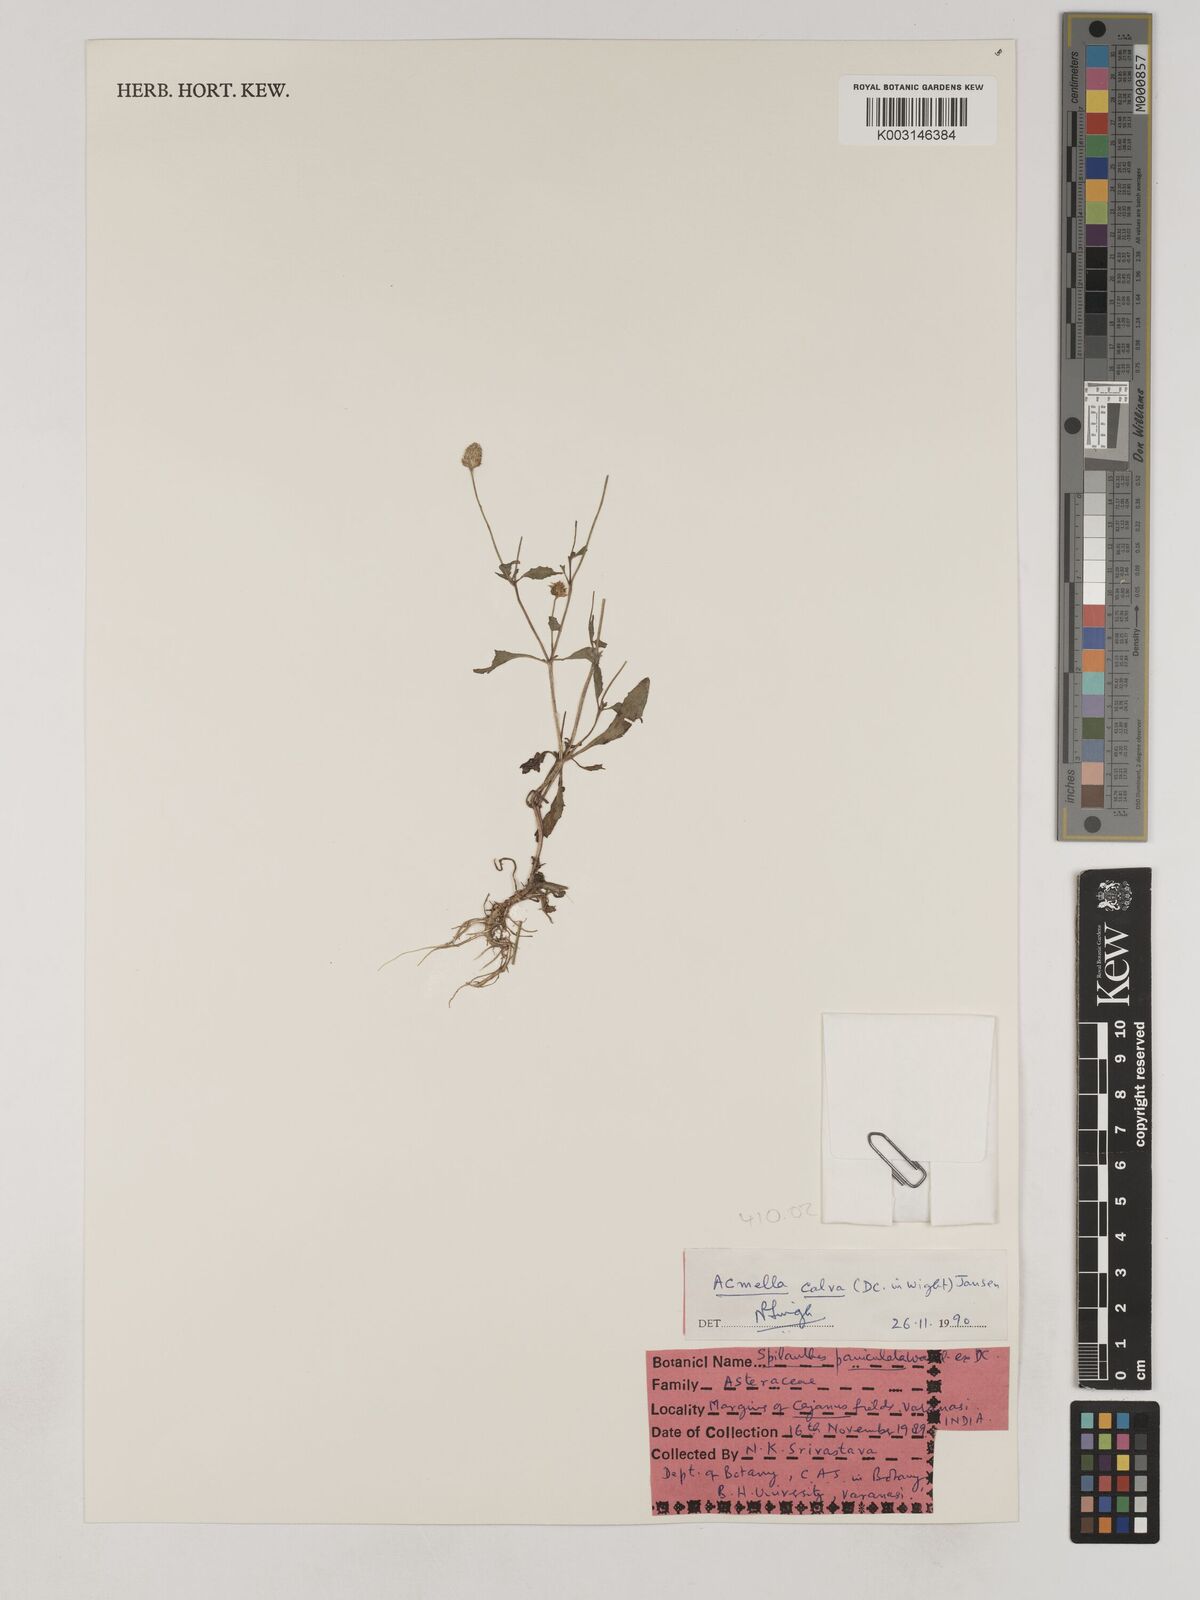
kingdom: Plantae
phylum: Tracheophyta
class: Magnoliopsida
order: Asterales
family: Asteraceae
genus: Acmella
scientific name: Acmella calva
